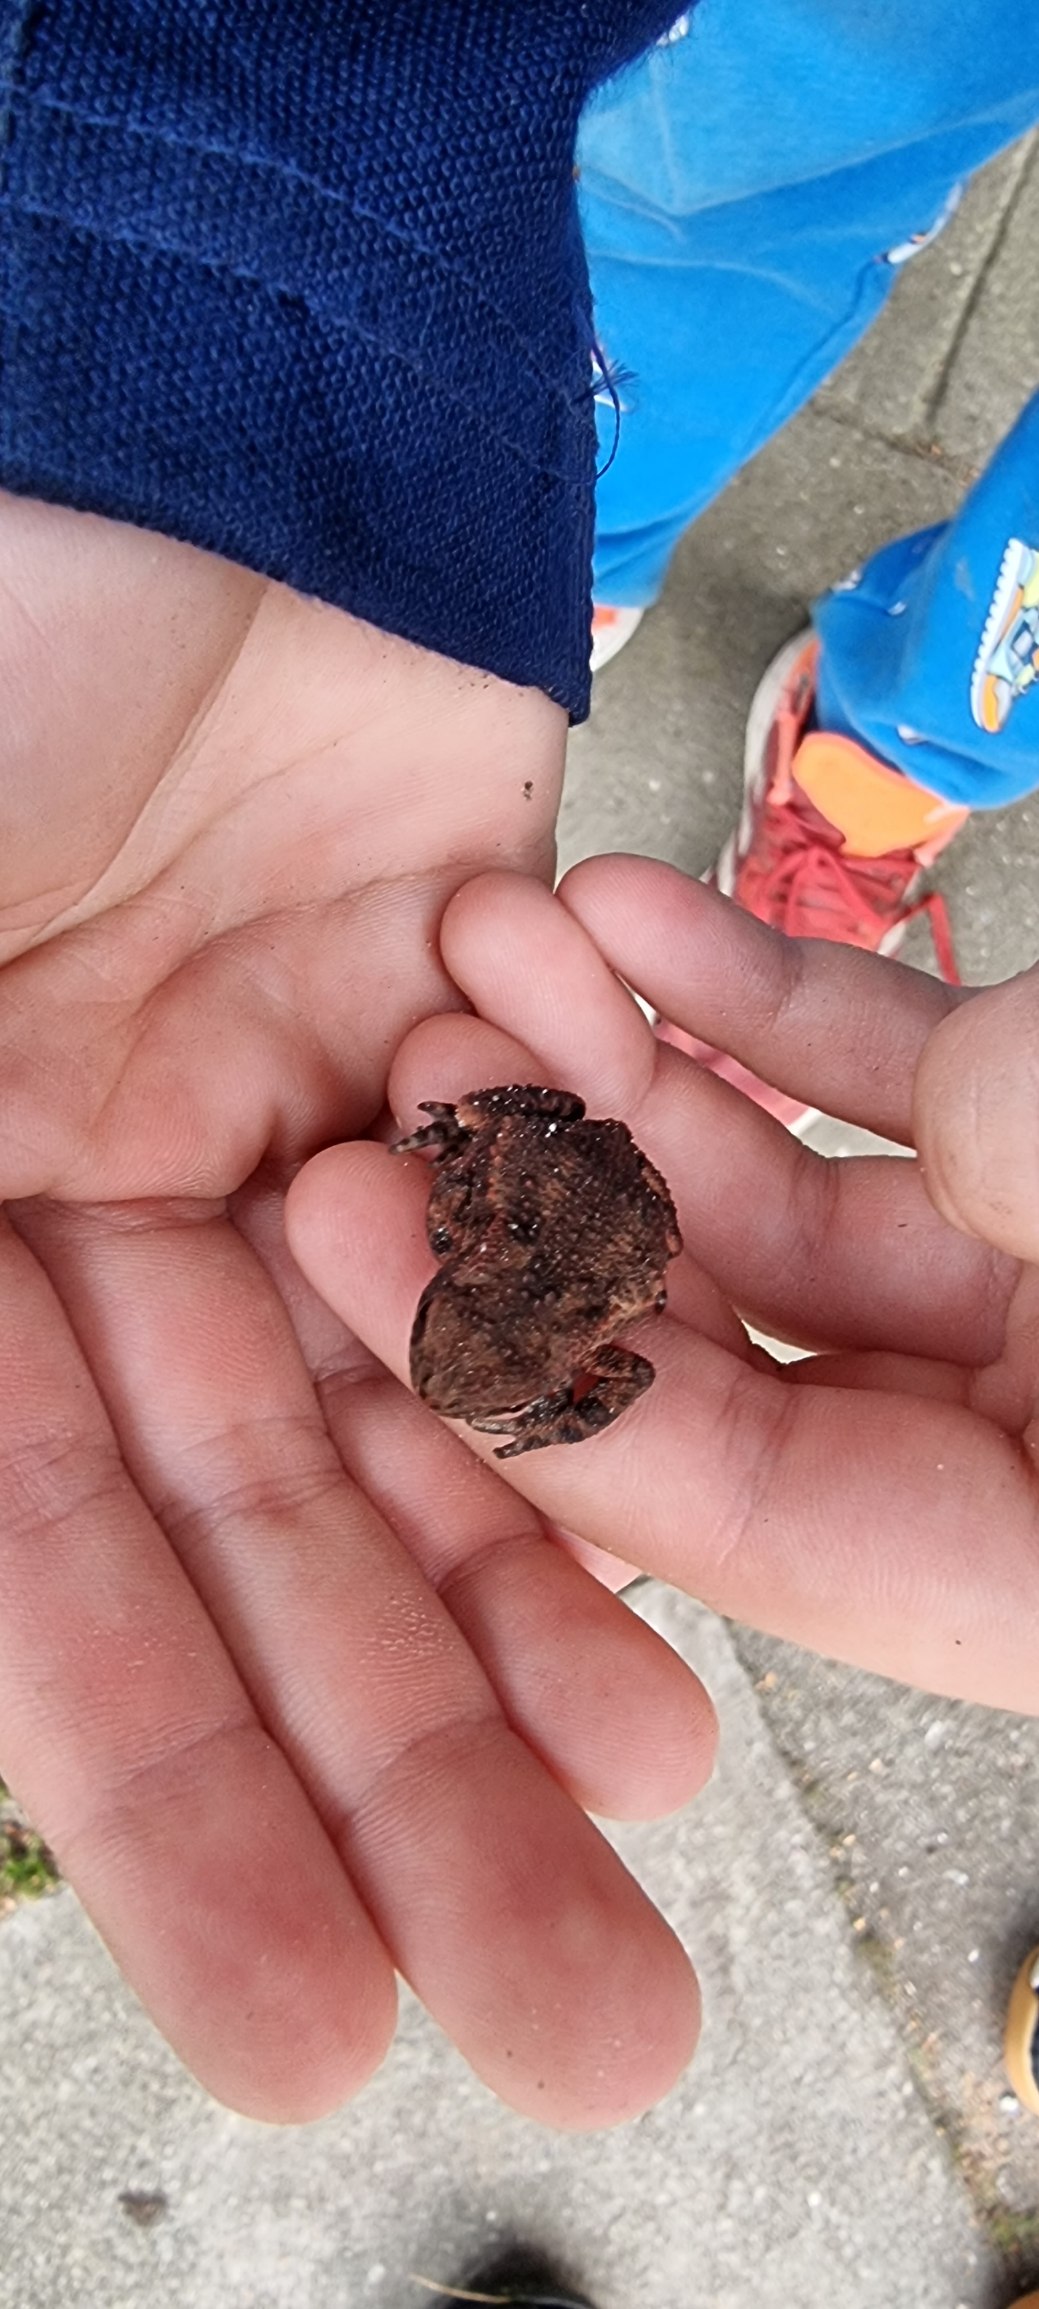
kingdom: Animalia
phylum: Chordata
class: Amphibia
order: Anura
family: Bufonidae
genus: Bufo
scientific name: Bufo bufo
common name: Skrubtudse
